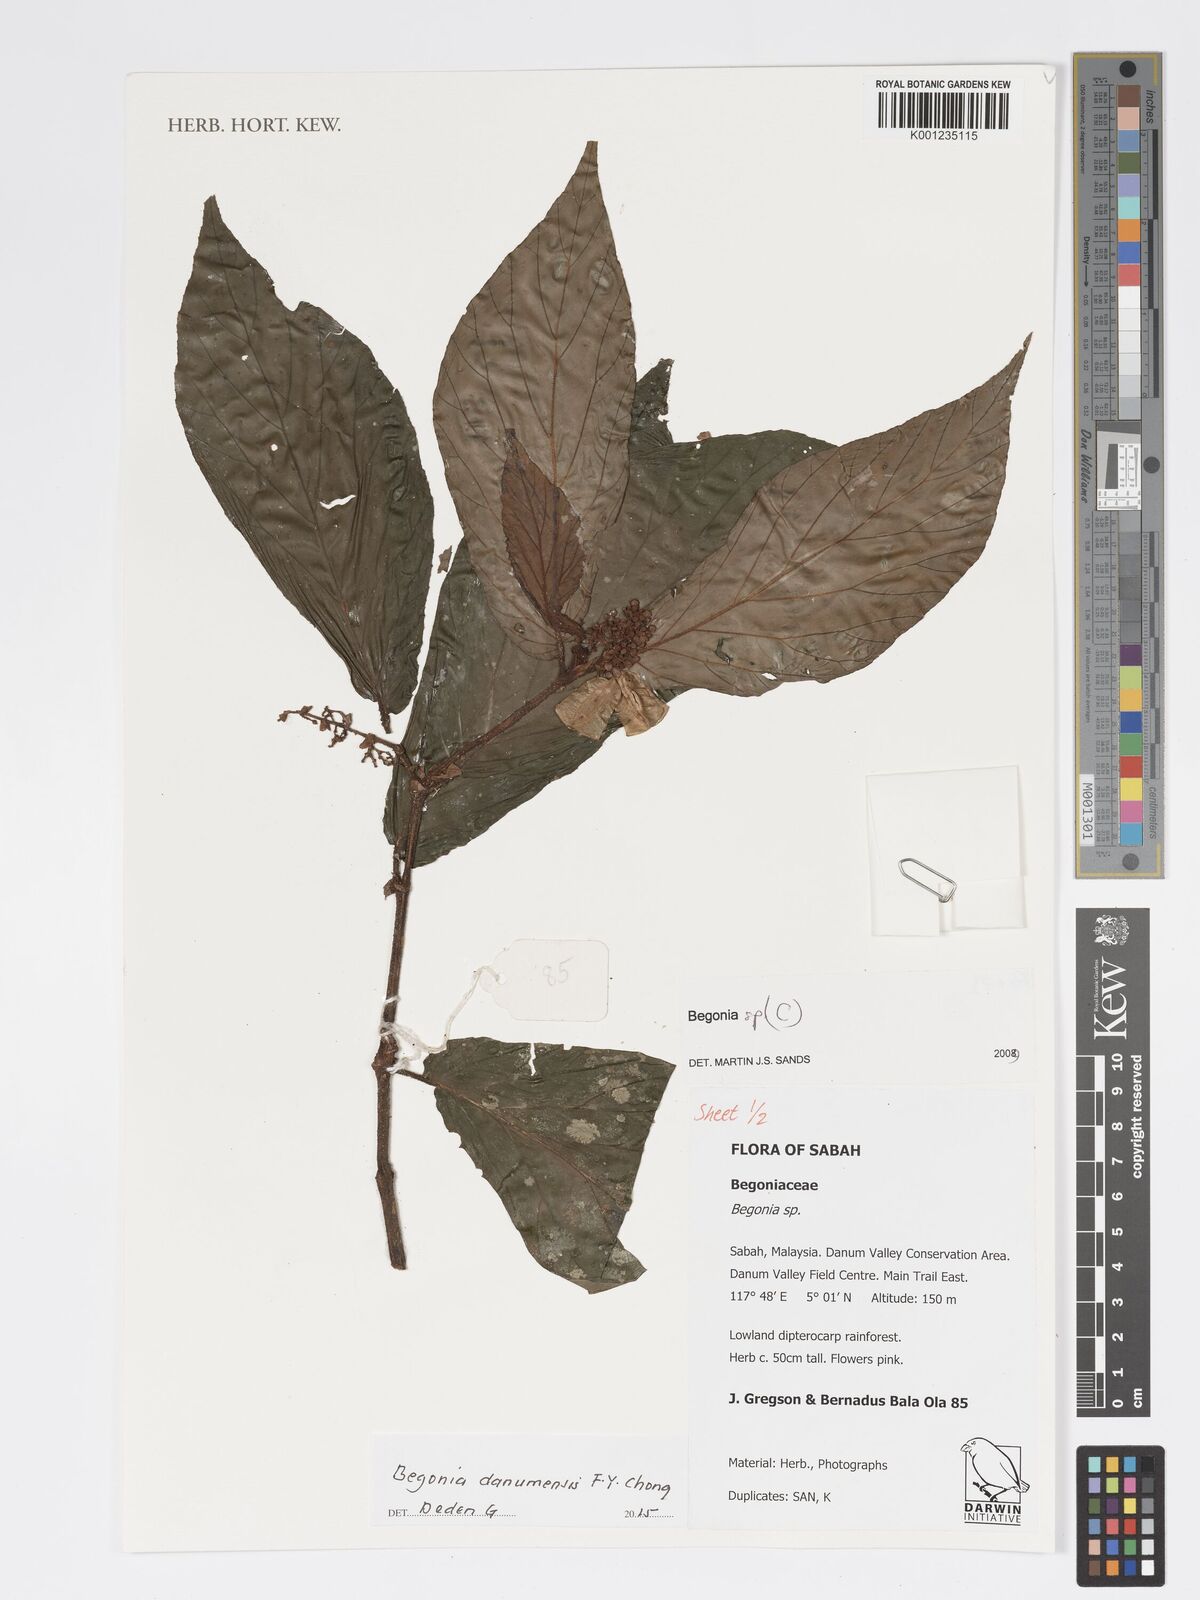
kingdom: Plantae
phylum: Tracheophyta
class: Magnoliopsida
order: Cucurbitales
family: Begoniaceae
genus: Begonia
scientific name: Begonia danumensis
